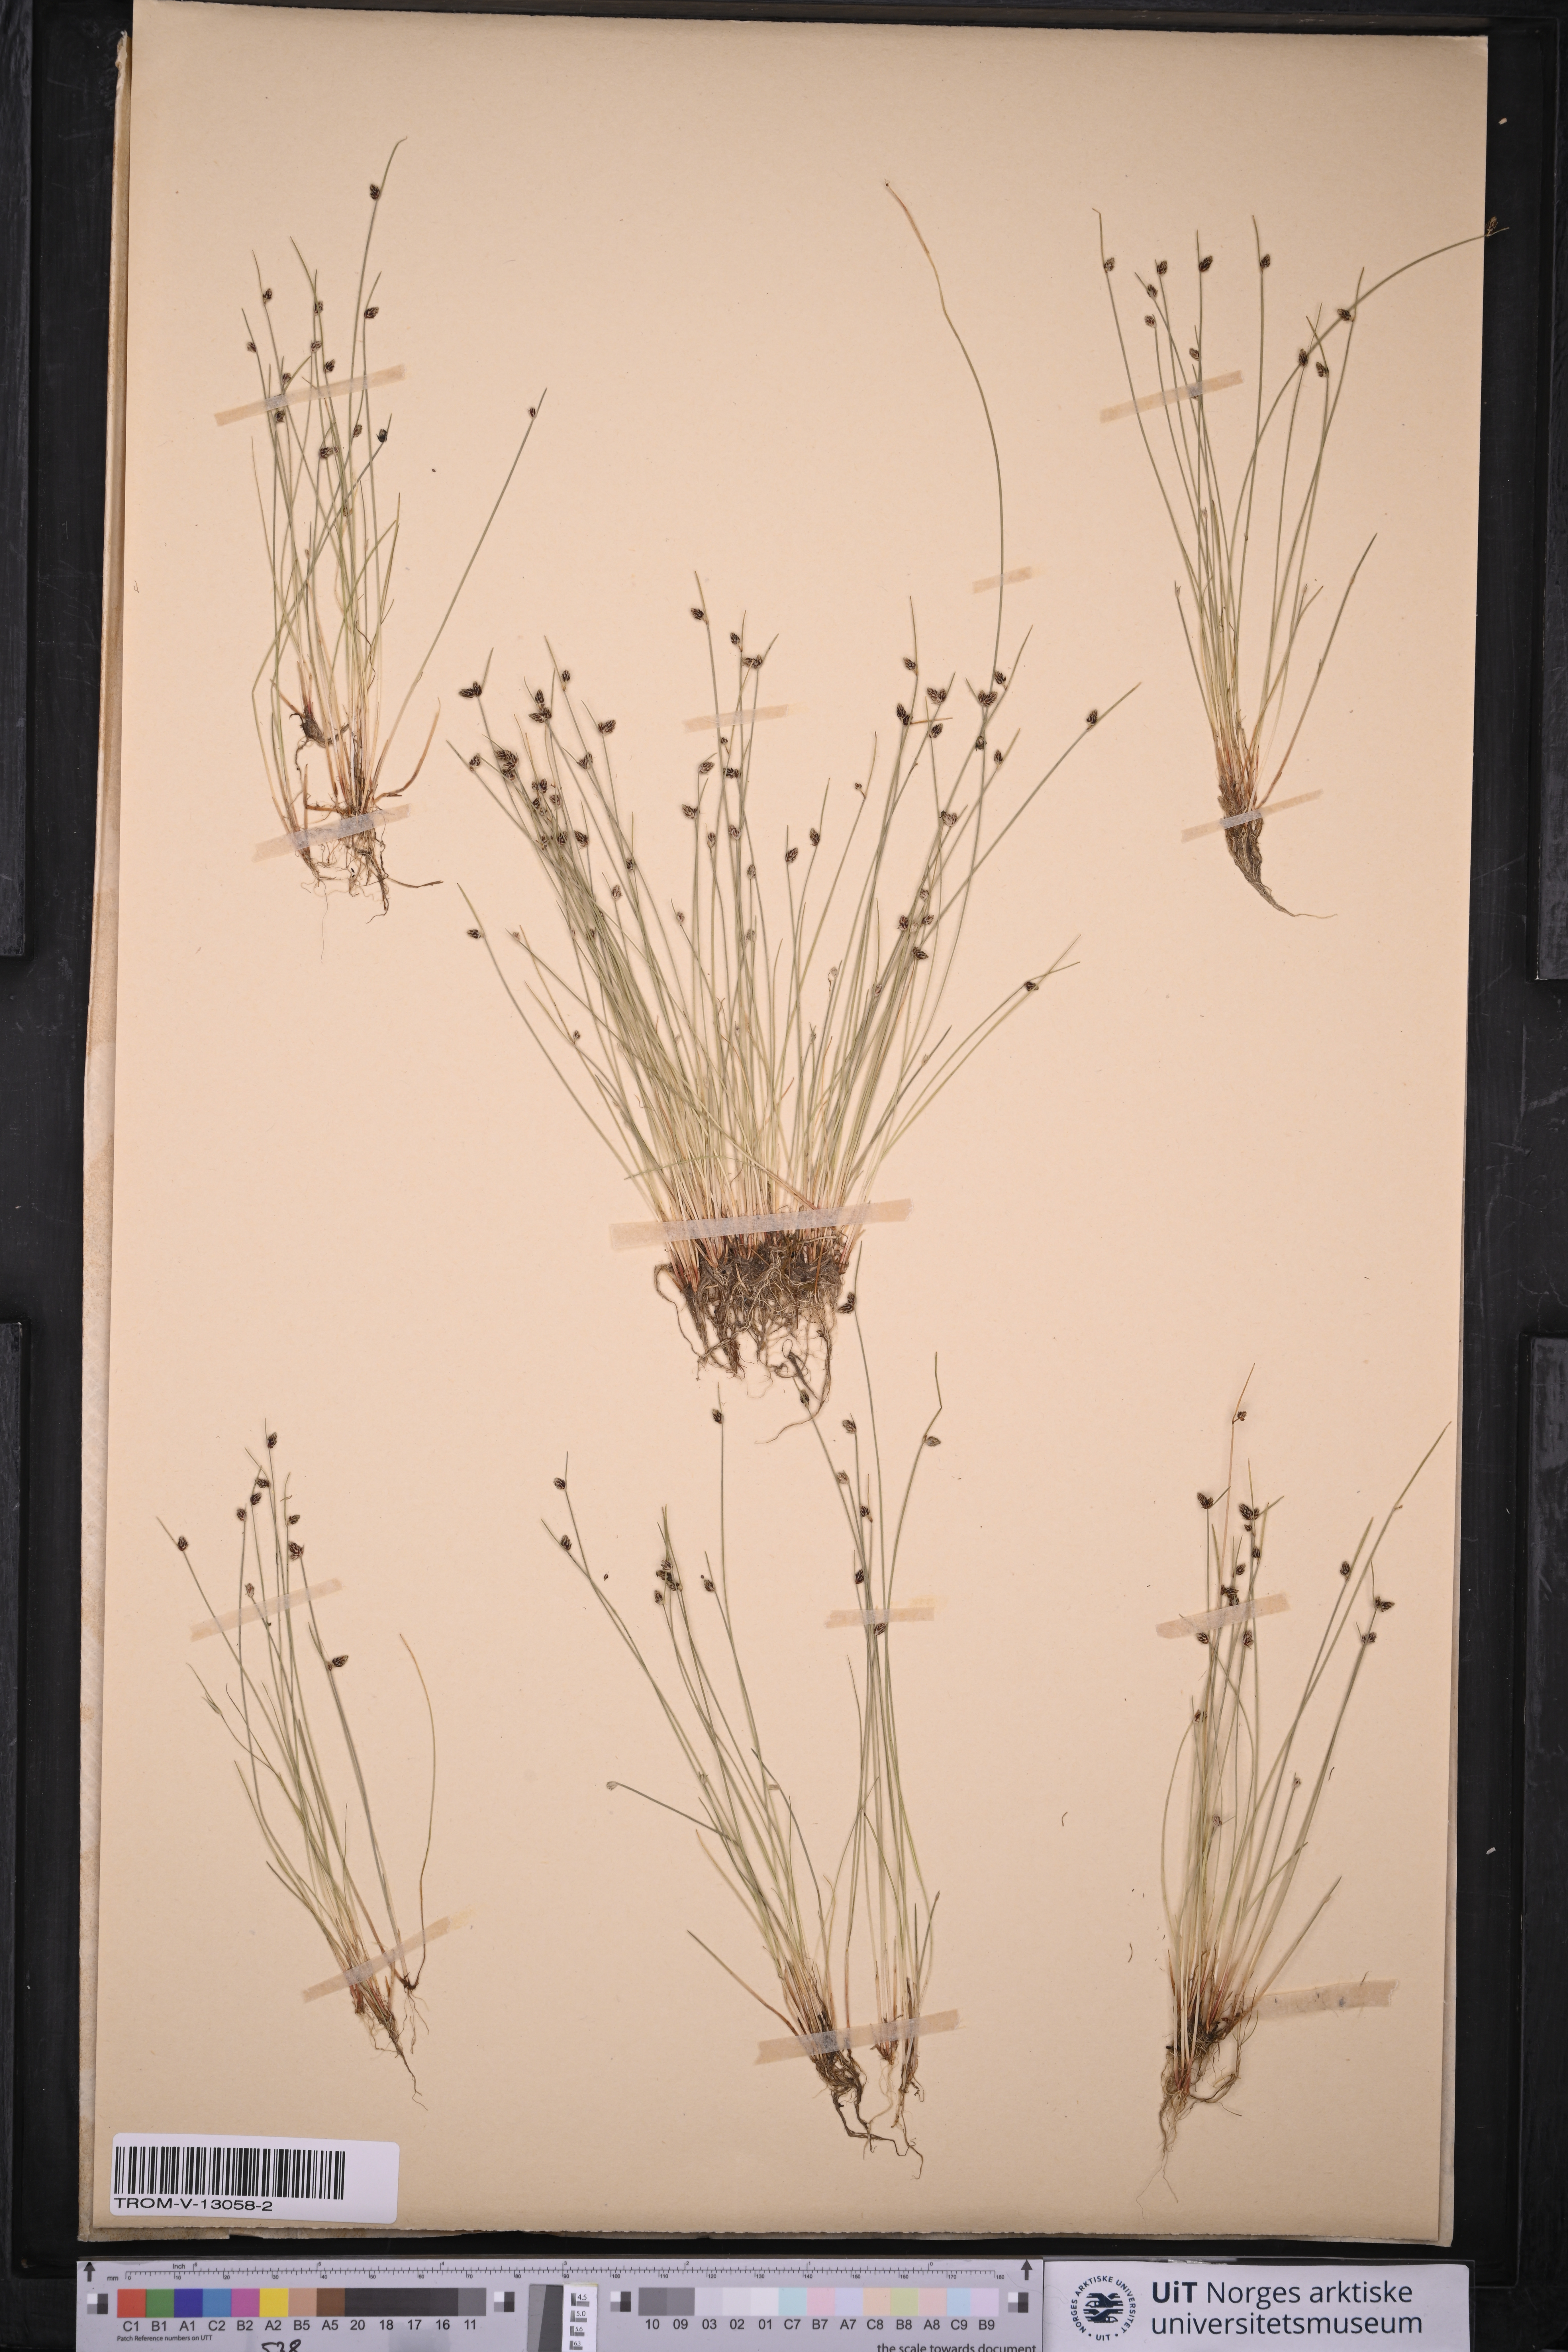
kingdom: Plantae
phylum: Tracheophyta
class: Liliopsida
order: Poales
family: Cyperaceae
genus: Isolepis
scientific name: Isolepis setacea
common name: Bristle club-rush
